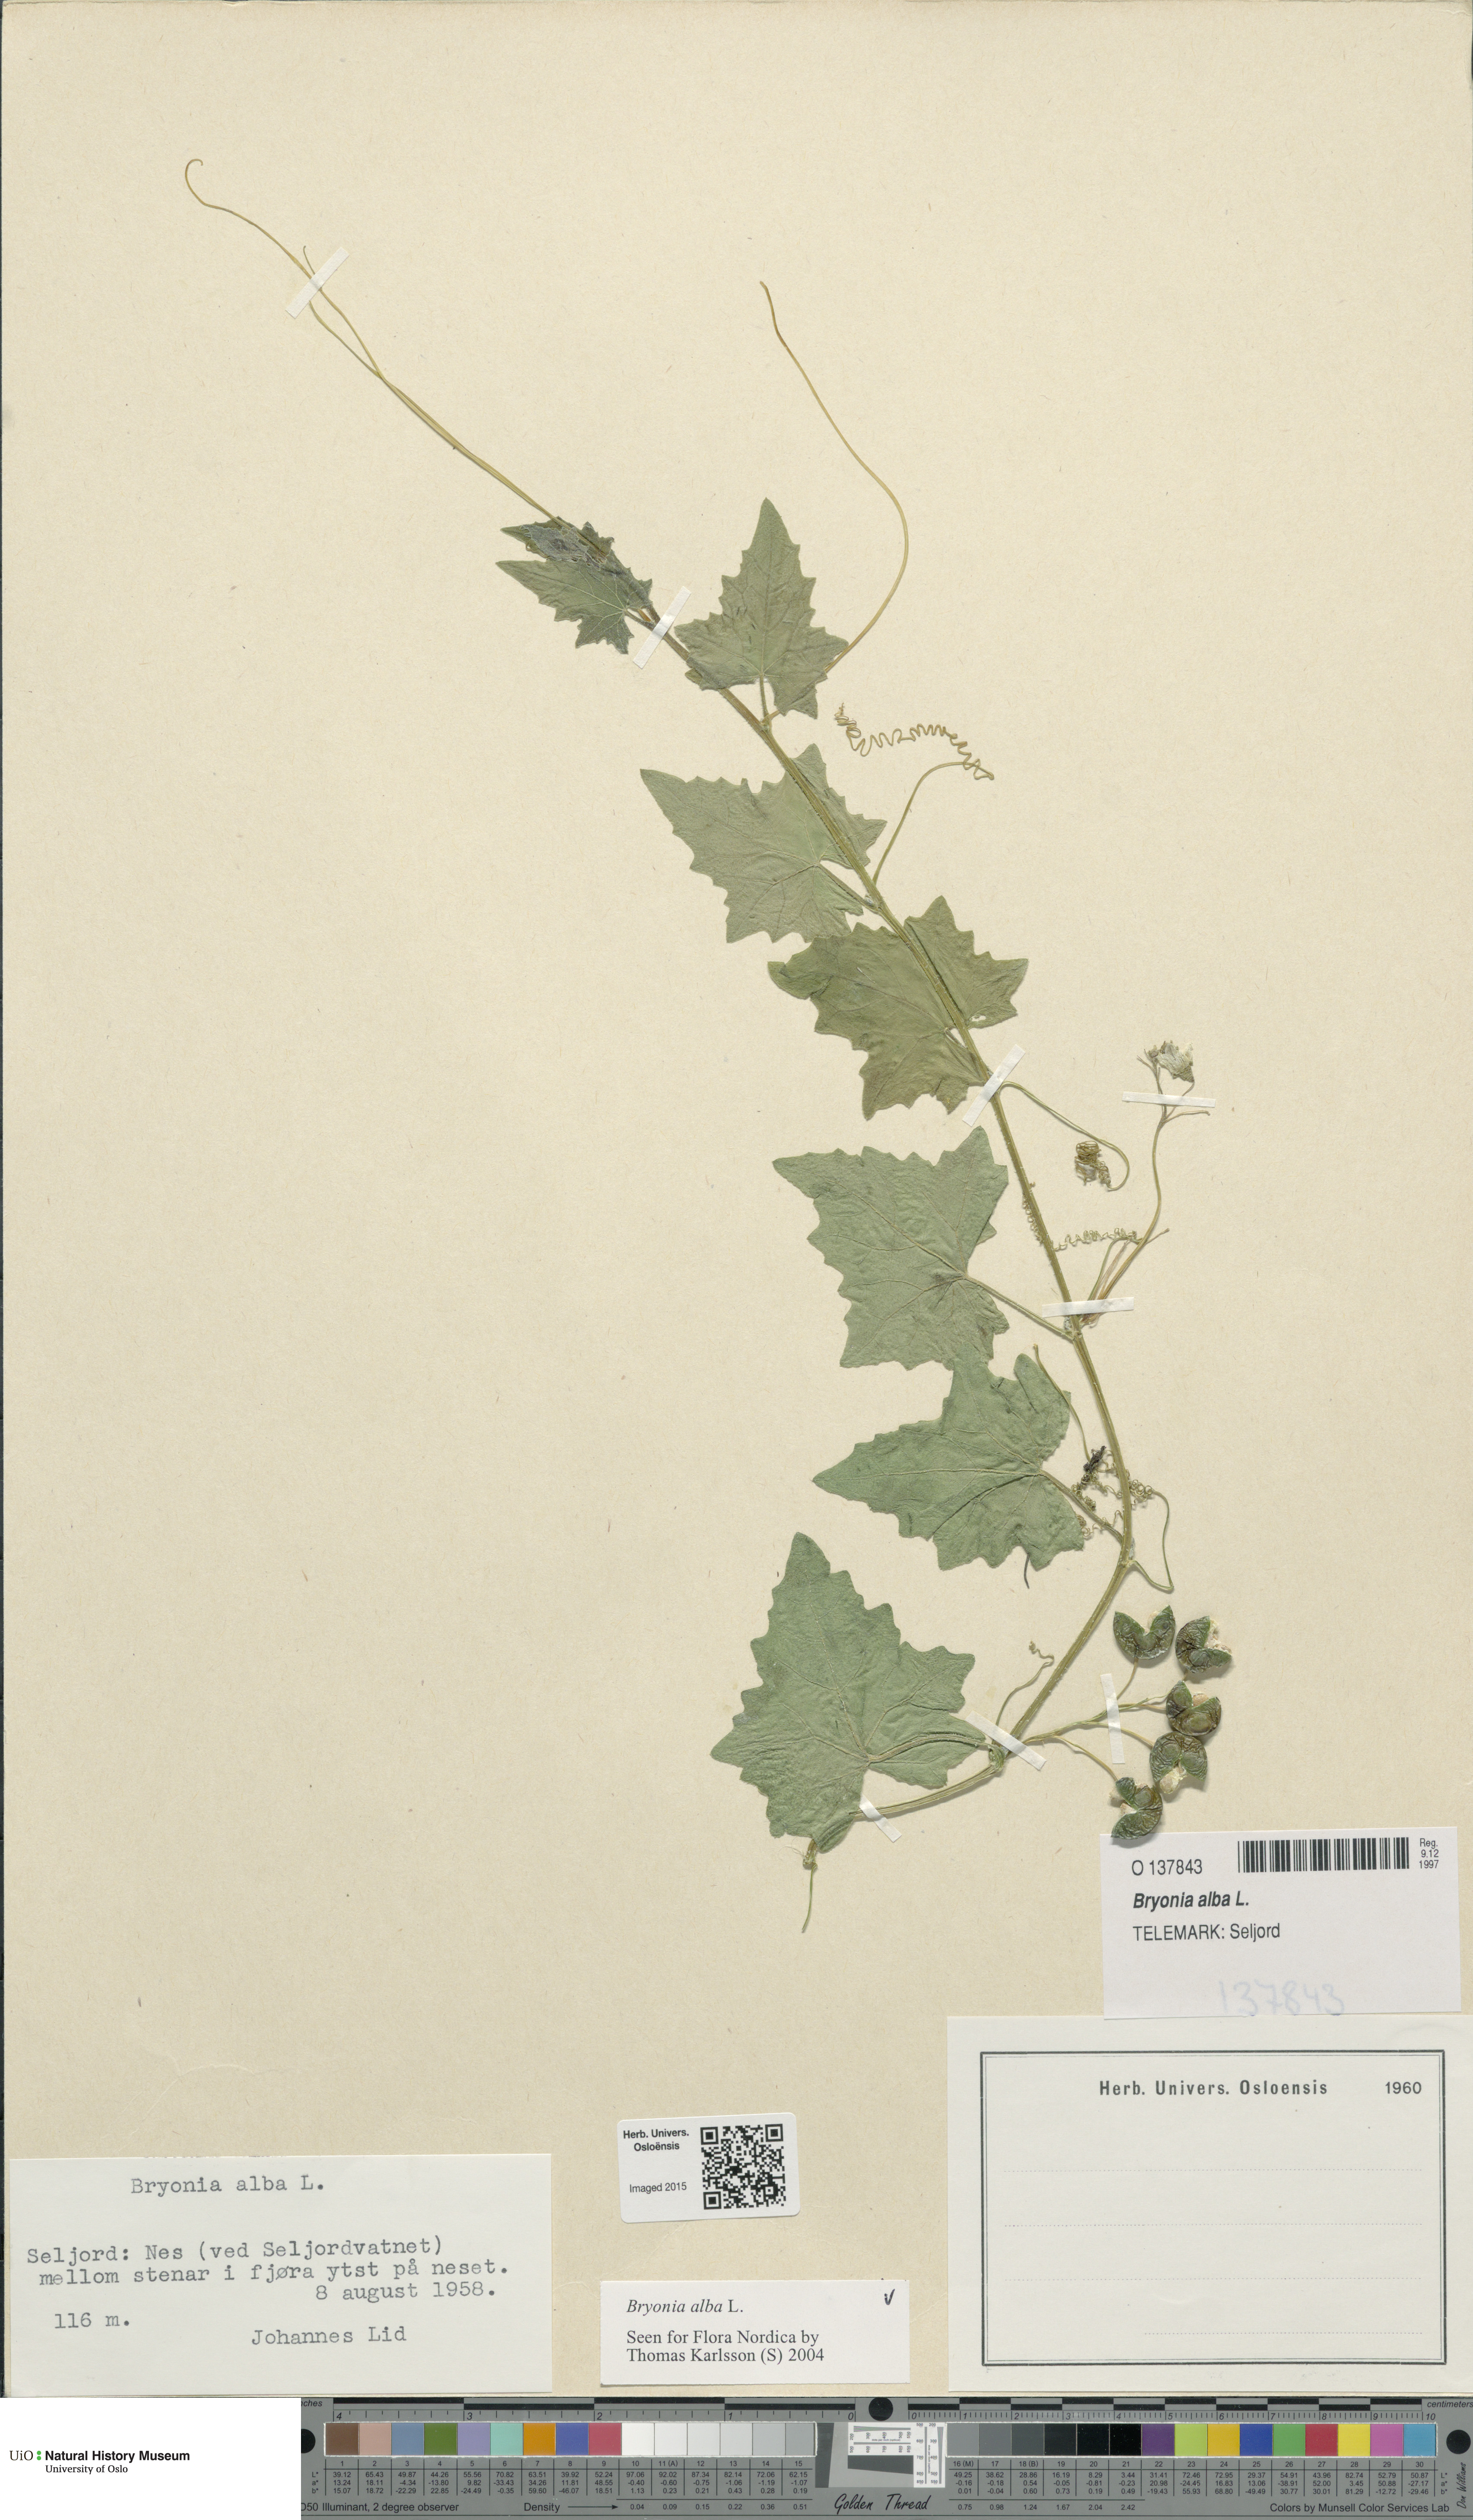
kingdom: Plantae
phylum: Tracheophyta
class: Magnoliopsida
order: Cucurbitales
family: Cucurbitaceae
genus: Bryonia
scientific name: Bryonia alba
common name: White bryony
